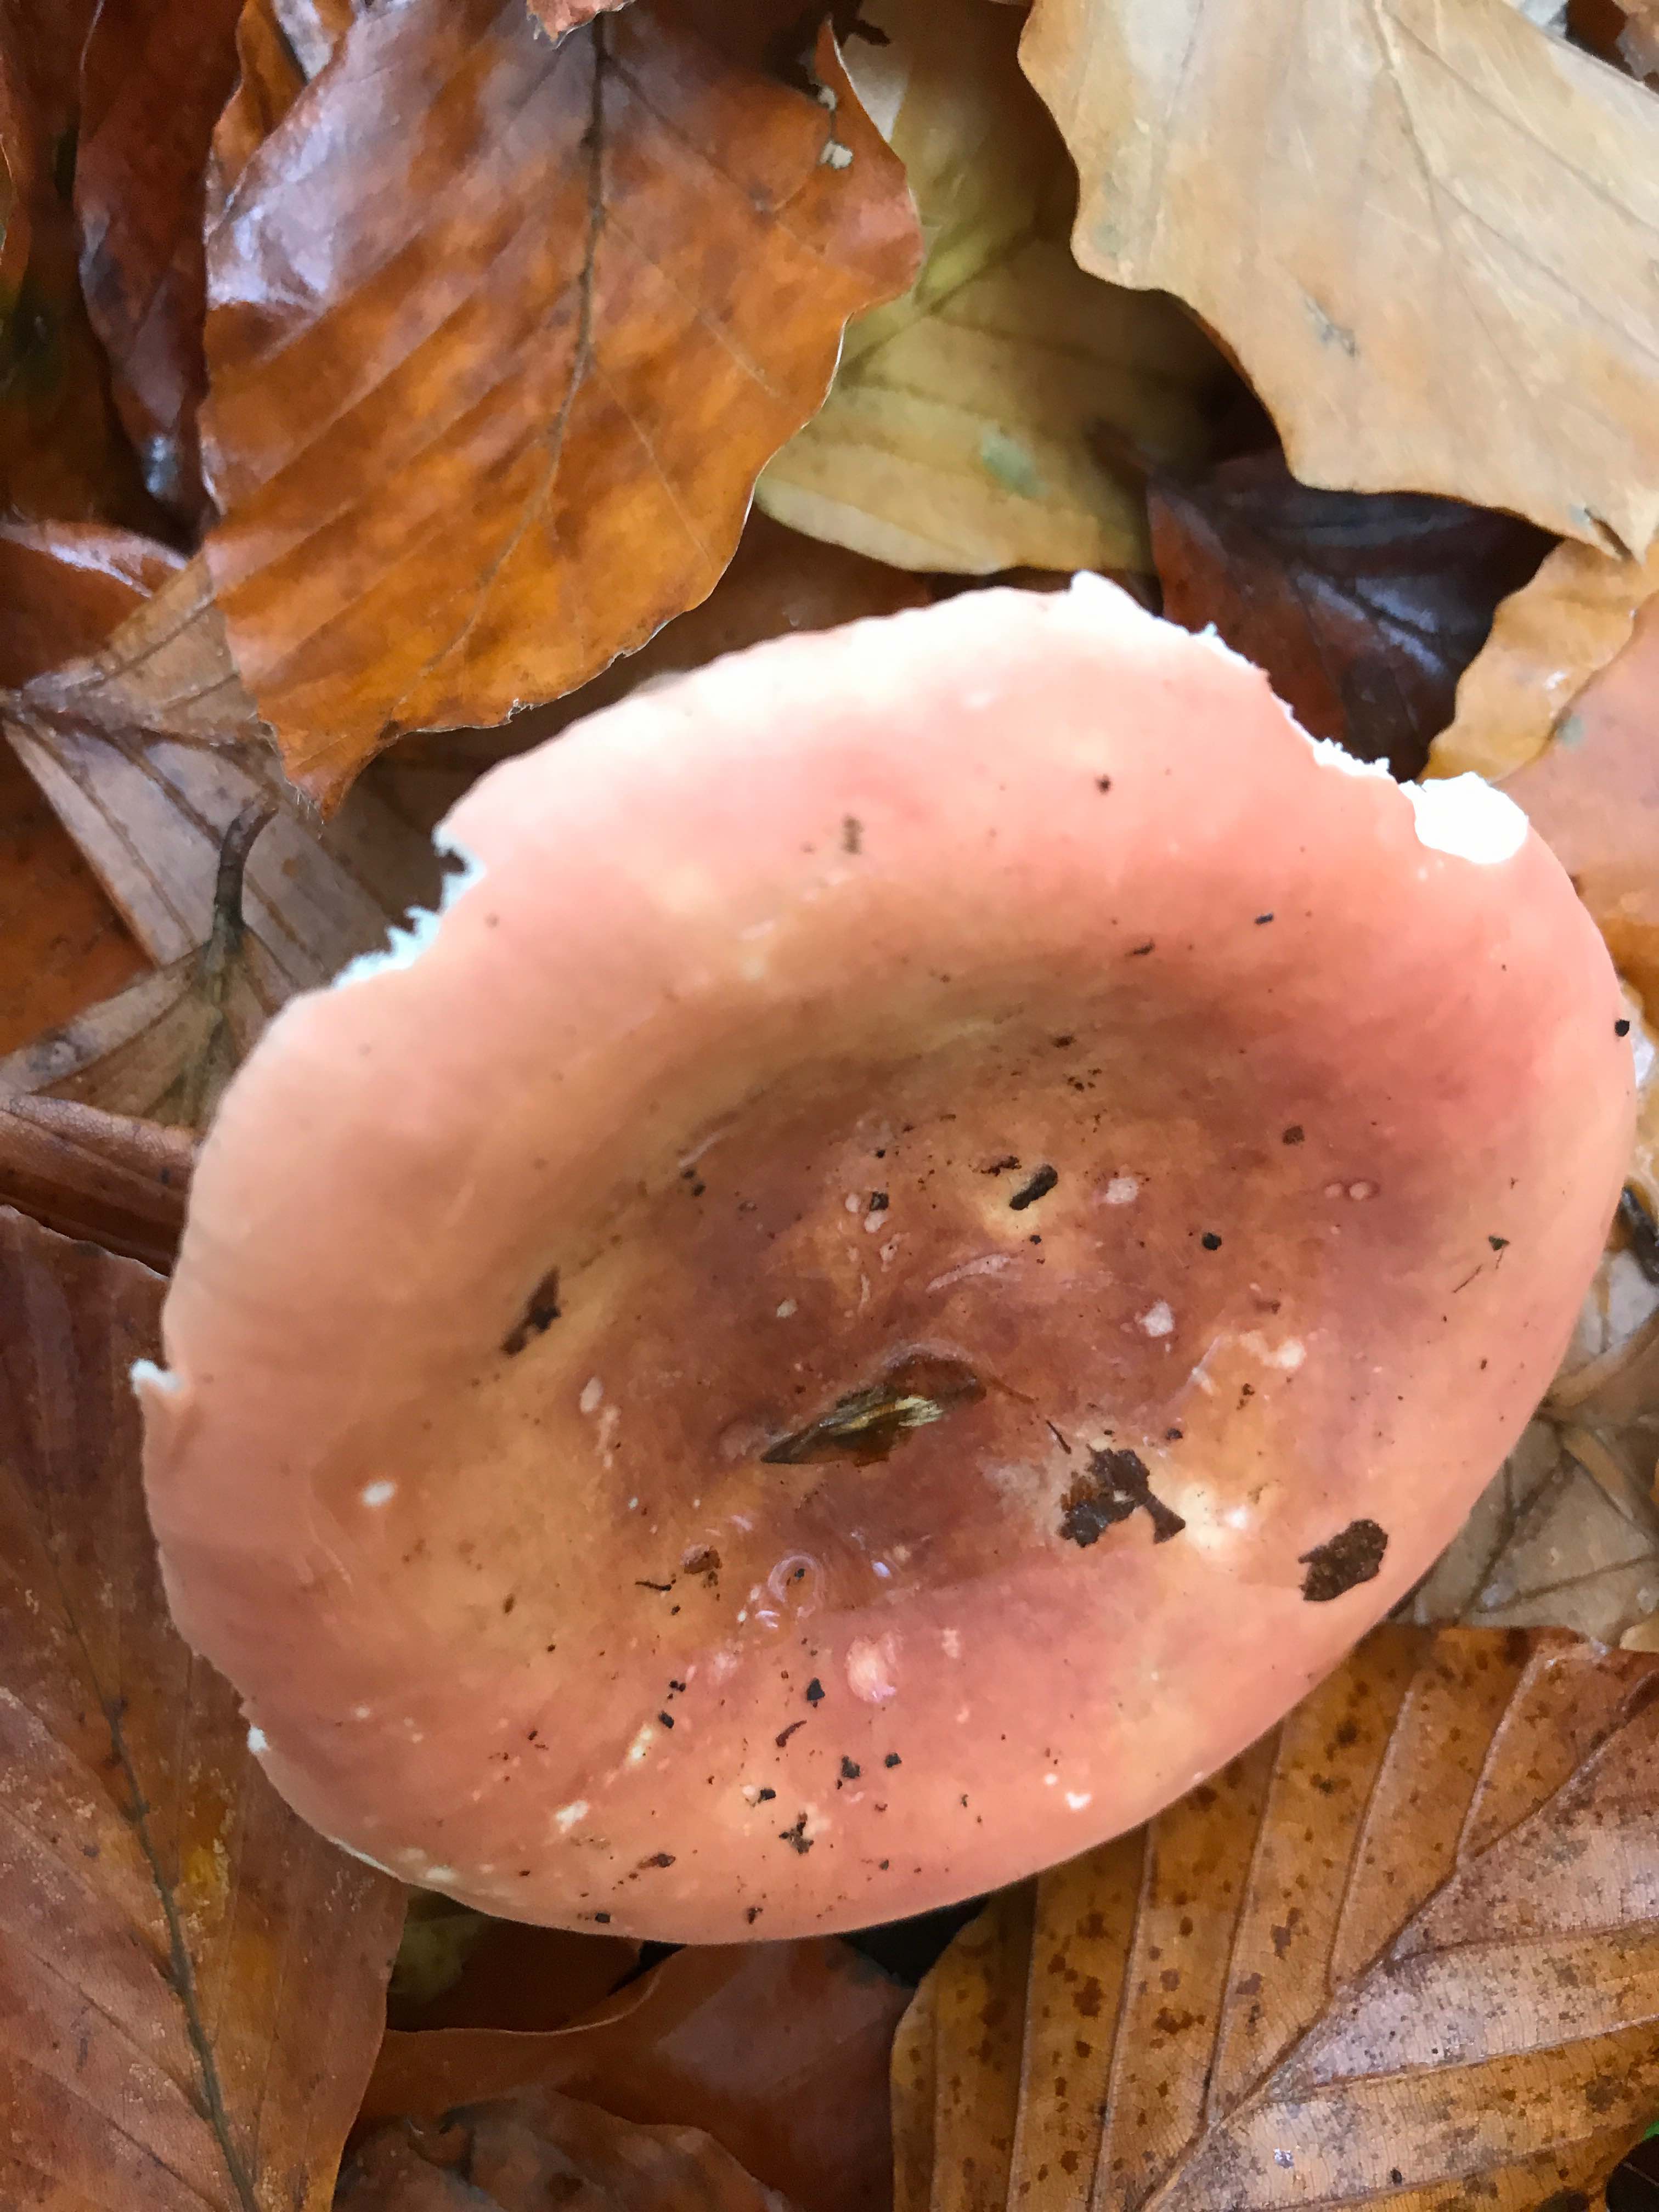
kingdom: Fungi
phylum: Basidiomycota
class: Agaricomycetes
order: Russulales
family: Russulaceae
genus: Russula
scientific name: Russula
